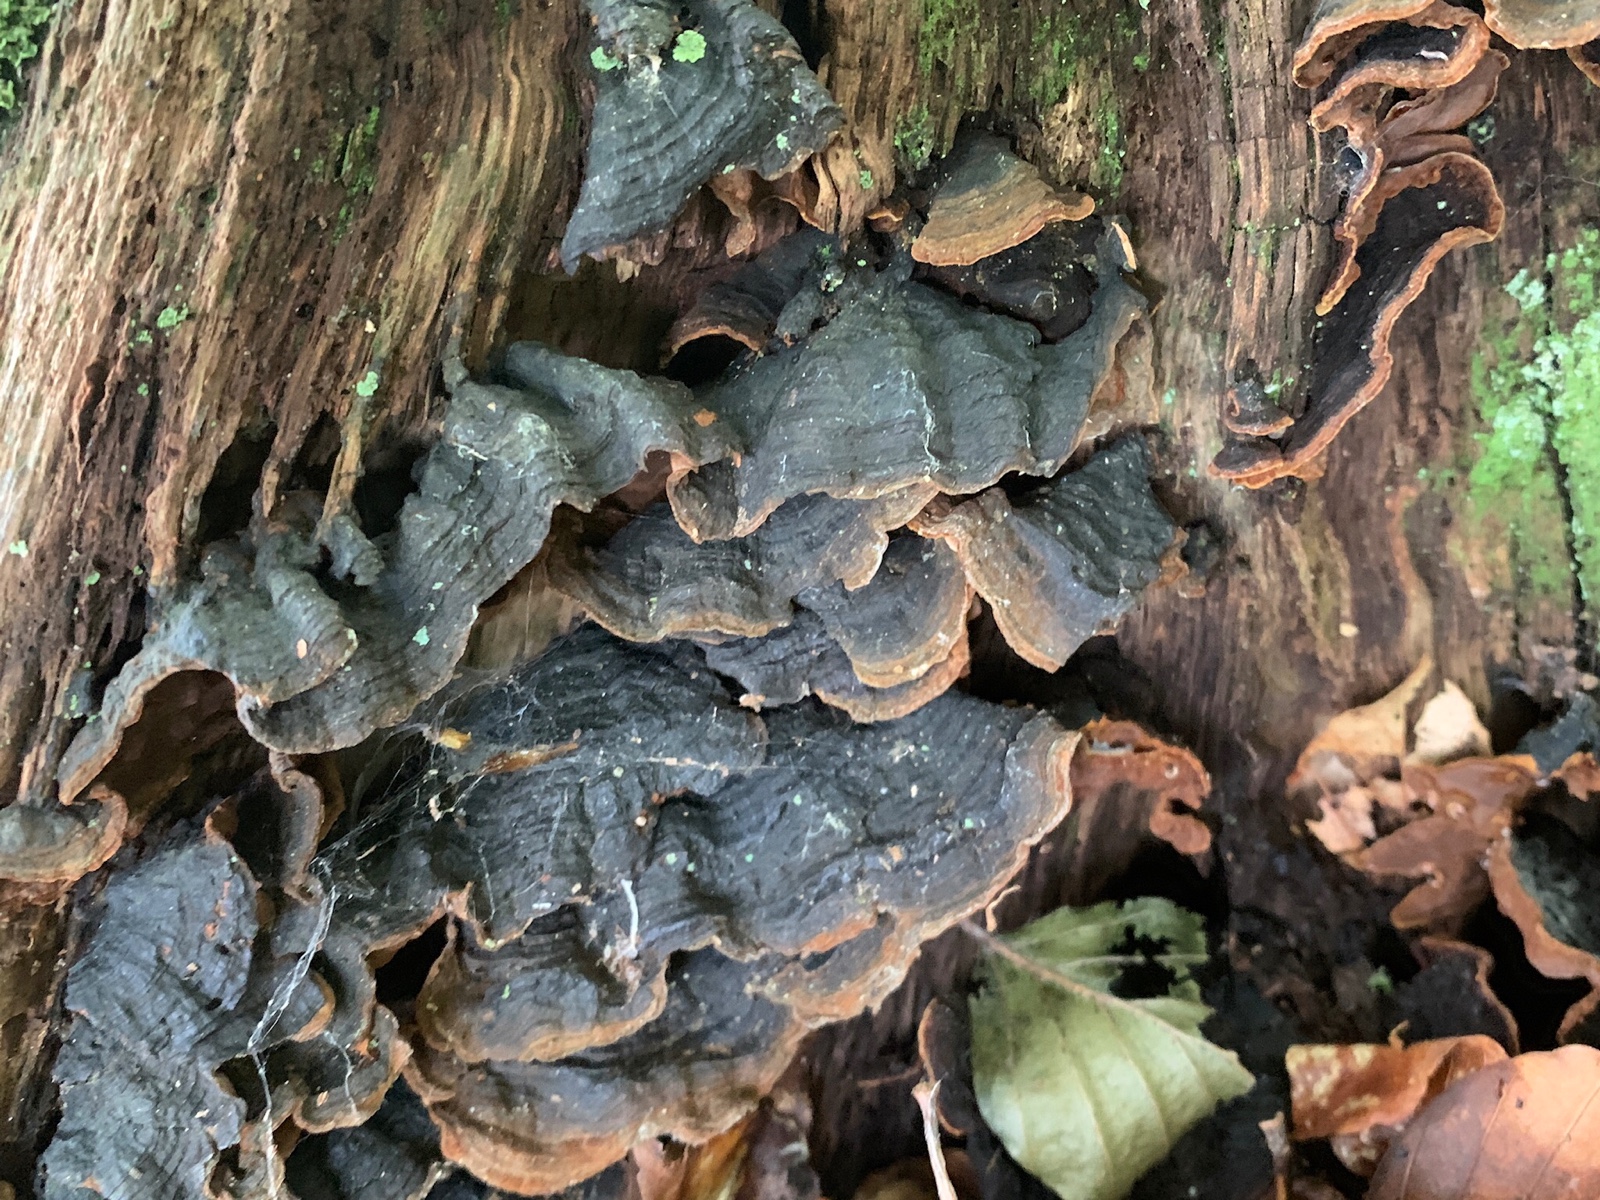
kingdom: Fungi
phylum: Basidiomycota
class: Agaricomycetes
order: Hymenochaetales
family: Hymenochaetaceae
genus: Hymenochaete
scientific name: Hymenochaete rubiginosa
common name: stiv ruslædersvamp
